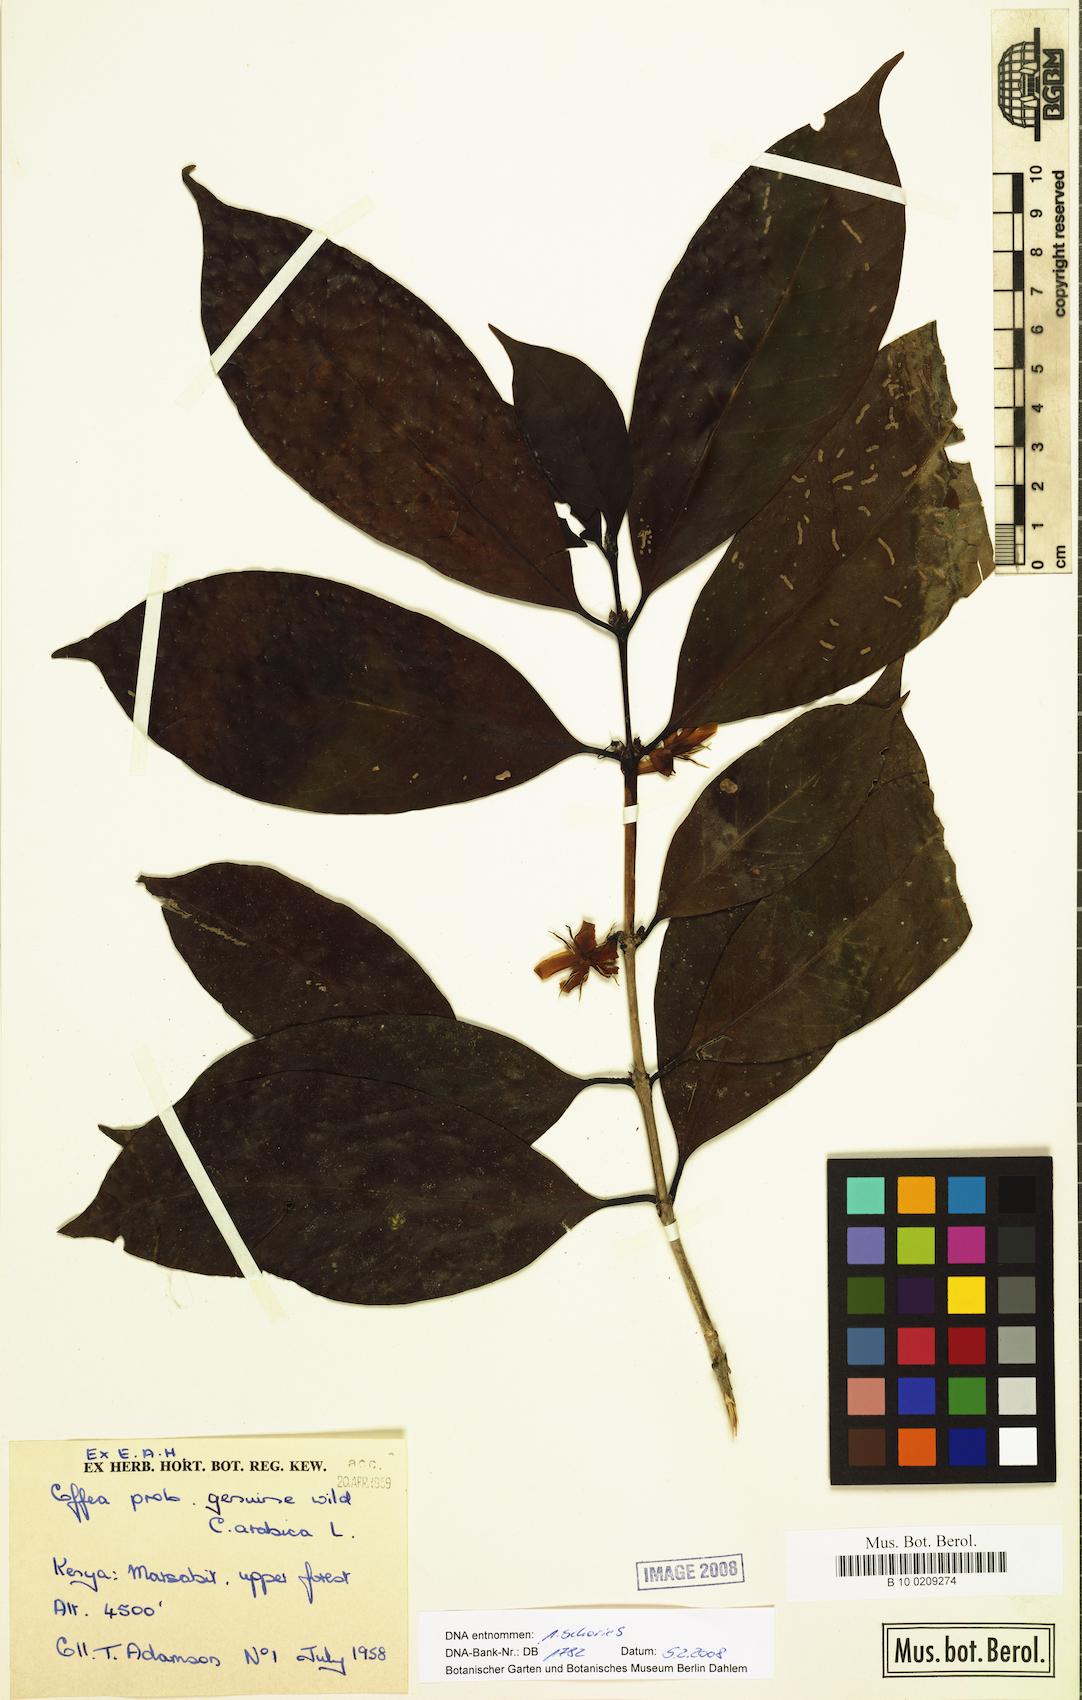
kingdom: Plantae
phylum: Tracheophyta
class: Magnoliopsida
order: Gentianales
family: Rubiaceae
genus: Coffea
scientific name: Coffea arabica
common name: Coffee
